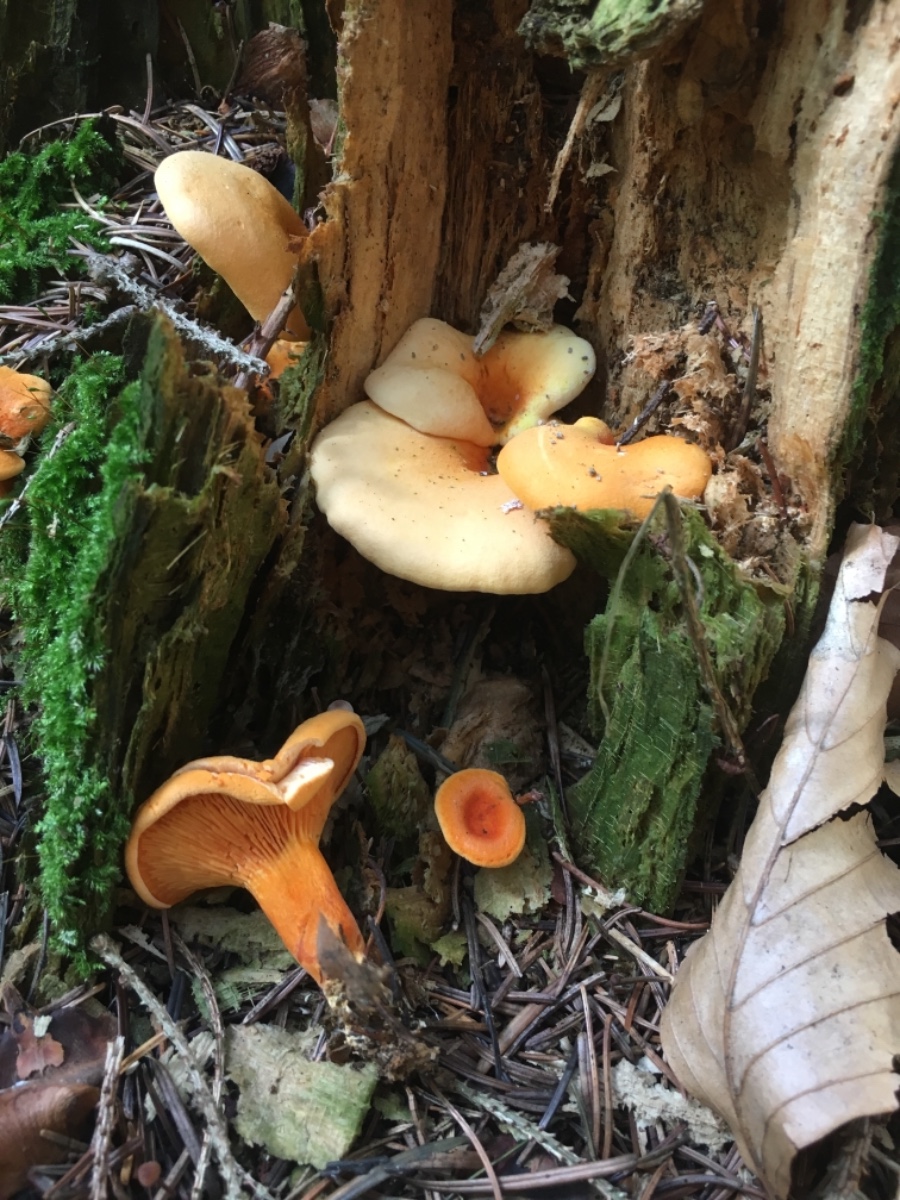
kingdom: Fungi
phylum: Basidiomycota
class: Agaricomycetes
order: Boletales
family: Hygrophoropsidaceae
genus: Hygrophoropsis
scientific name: Hygrophoropsis aurantiaca
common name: almindelig orangekantarel
